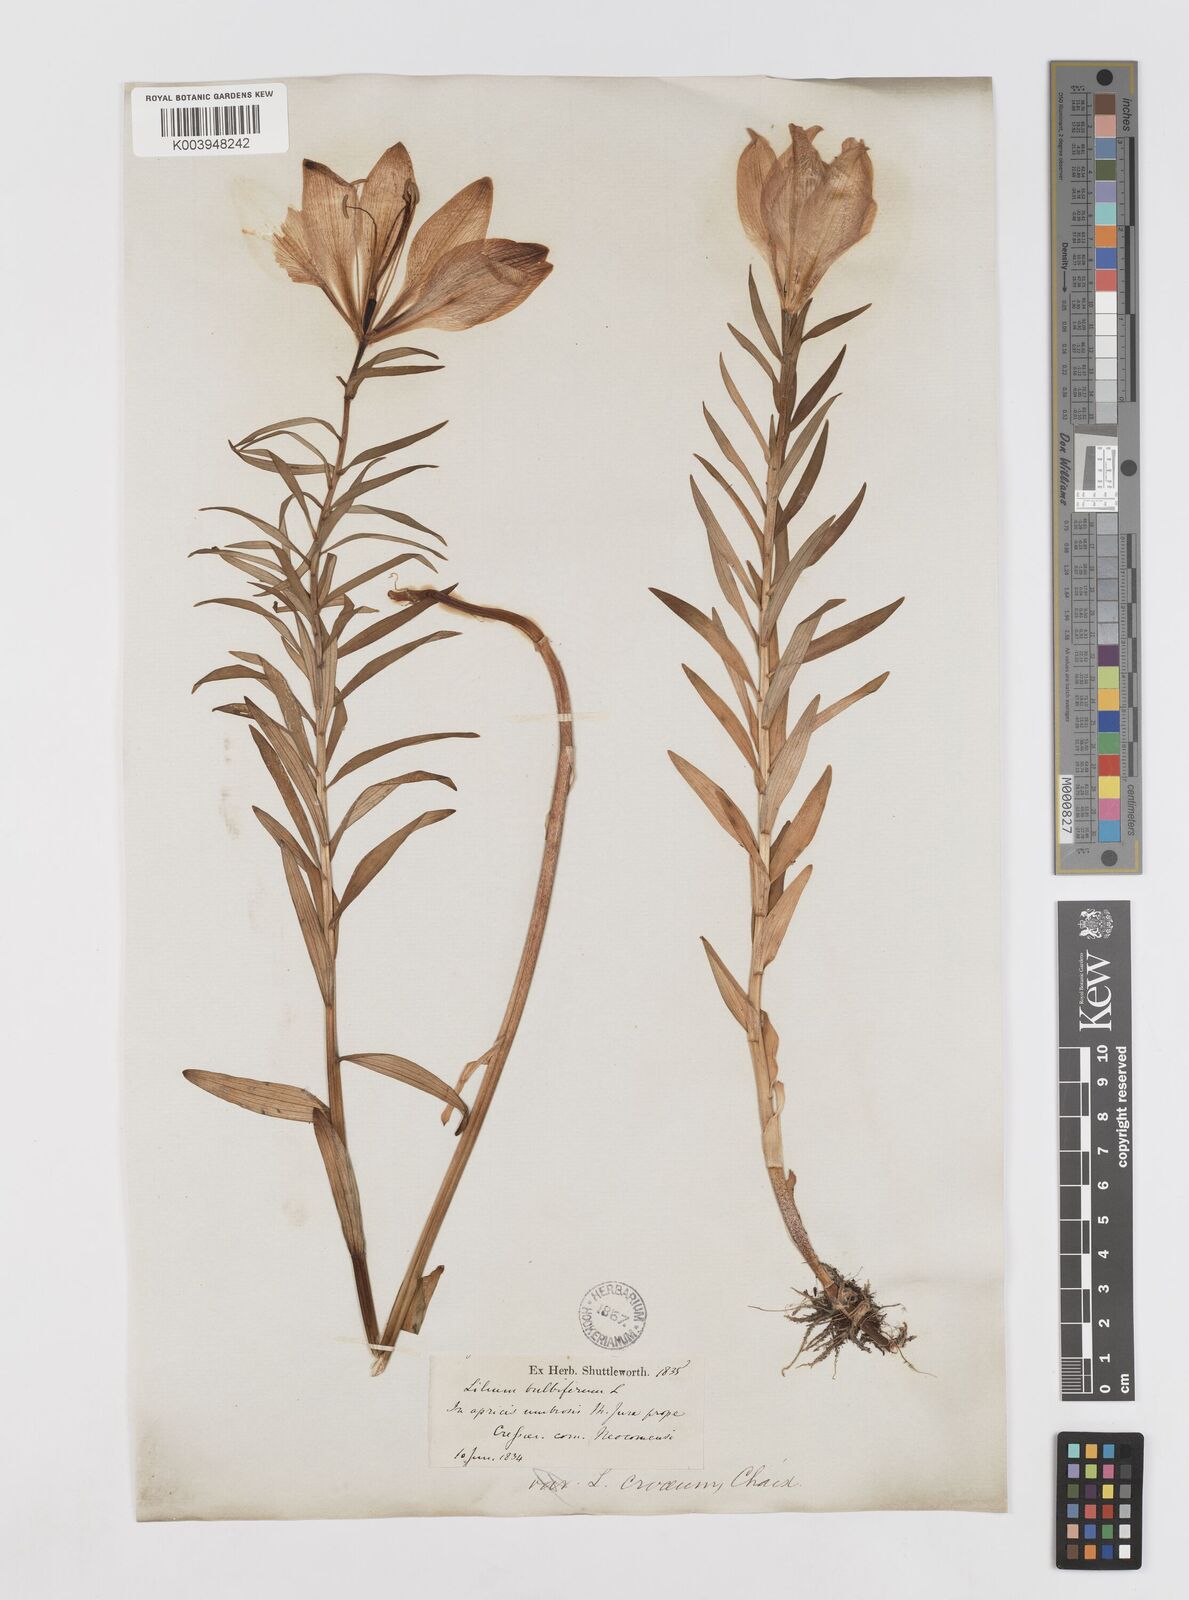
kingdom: Plantae
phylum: Tracheophyta
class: Liliopsida
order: Liliales
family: Liliaceae
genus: Lilium
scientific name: Lilium bulbiferum
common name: Orange lily
